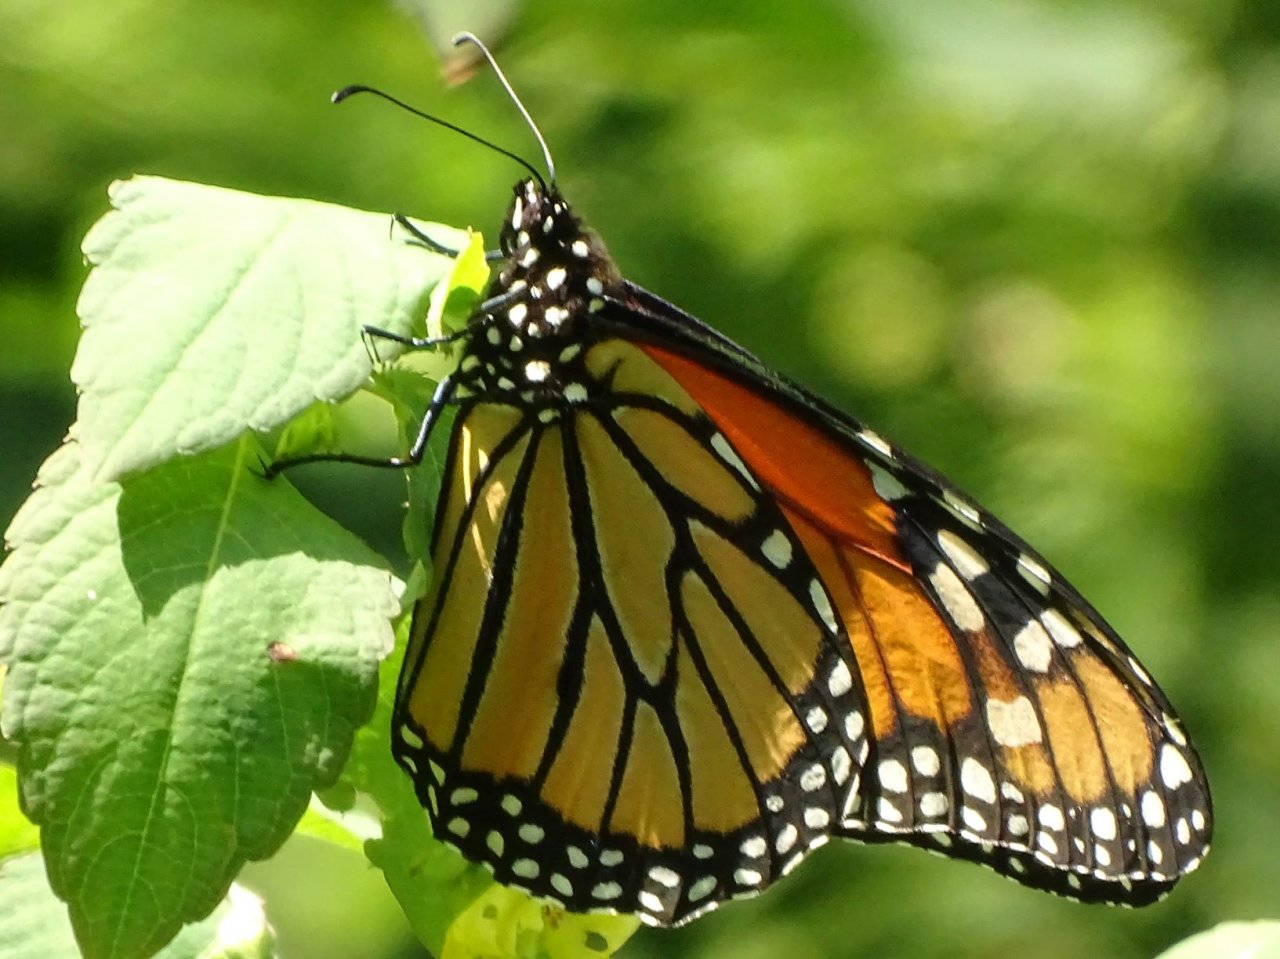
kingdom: Animalia
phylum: Arthropoda
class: Insecta
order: Lepidoptera
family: Nymphalidae
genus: Danaus
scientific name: Danaus plexippus
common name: Monarch
